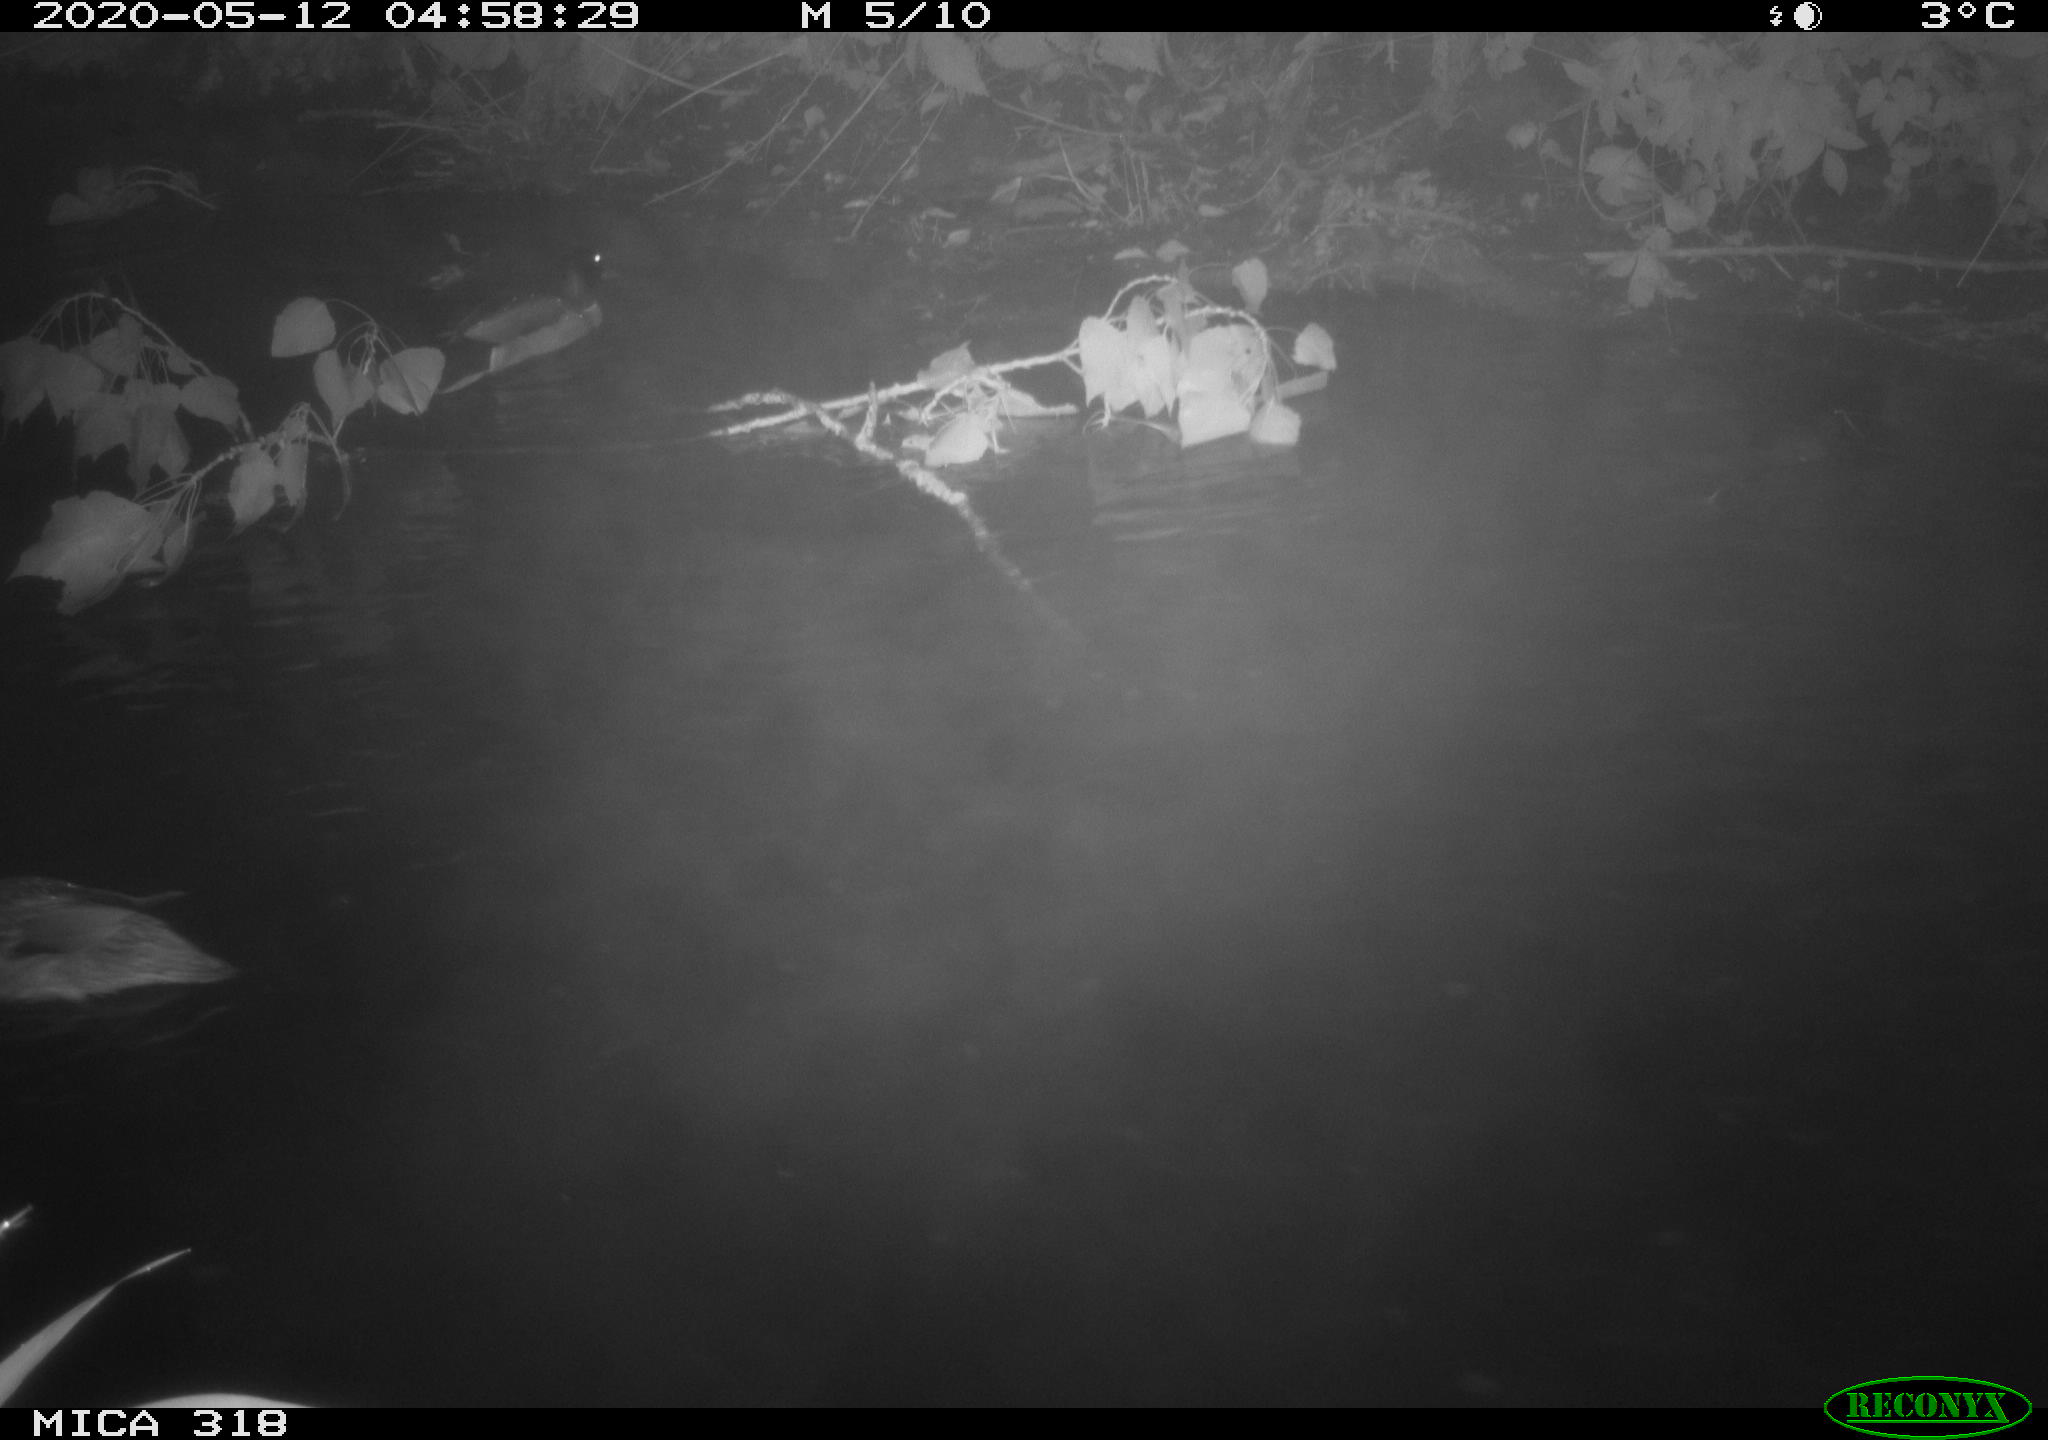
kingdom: Animalia
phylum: Chordata
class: Aves
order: Anseriformes
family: Anatidae
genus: Anas
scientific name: Anas platyrhynchos
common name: Mallard
